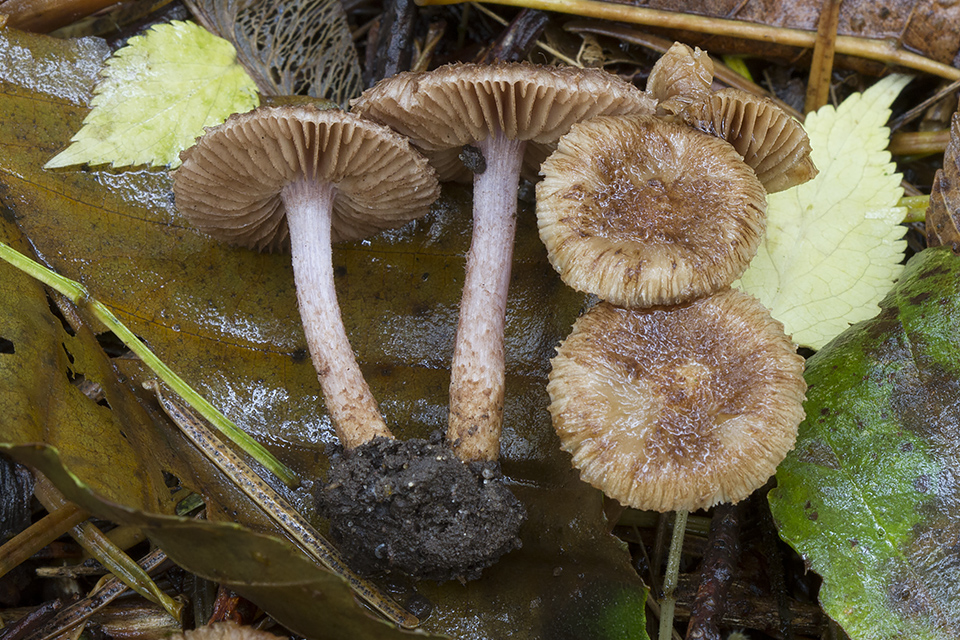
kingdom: Fungi
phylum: Basidiomycota
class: Agaricomycetes
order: Agaricales
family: Inocybaceae
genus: Inocybe
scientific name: Inocybe cincinnata
